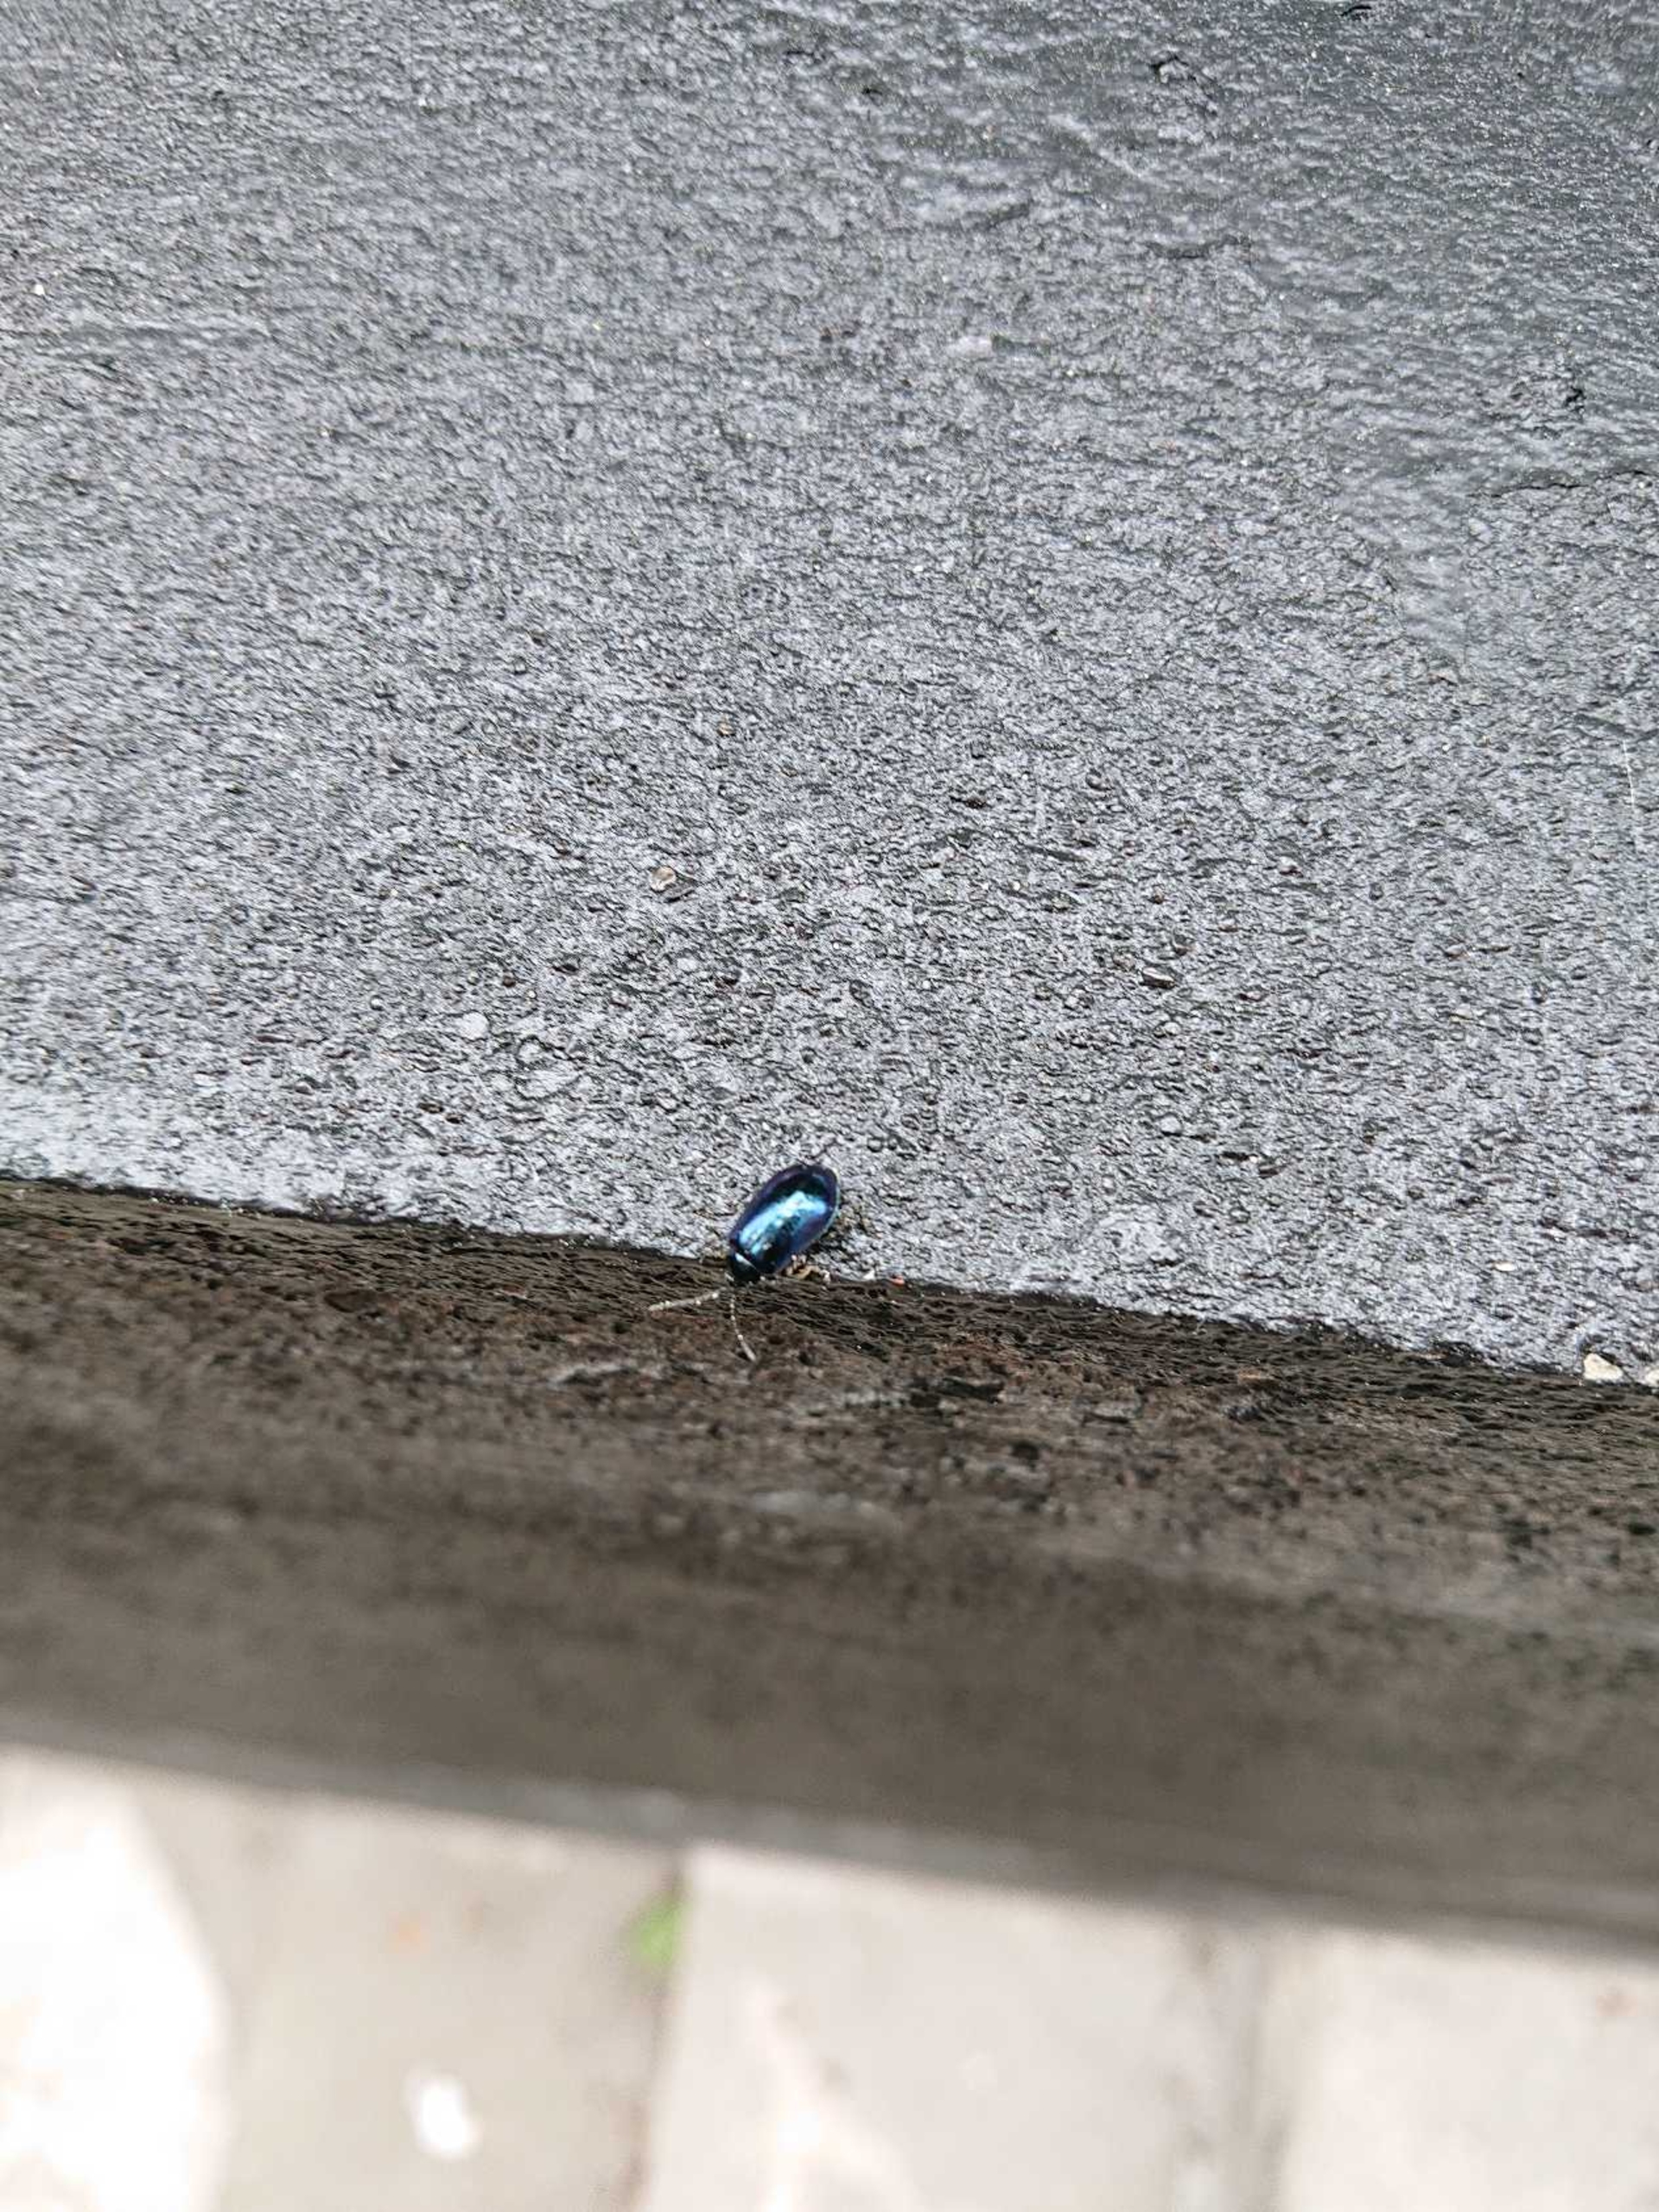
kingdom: Animalia
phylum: Arthropoda
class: Insecta
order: Coleoptera
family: Chrysomelidae
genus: Agelastica
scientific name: Agelastica alni
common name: Ellebladbille
